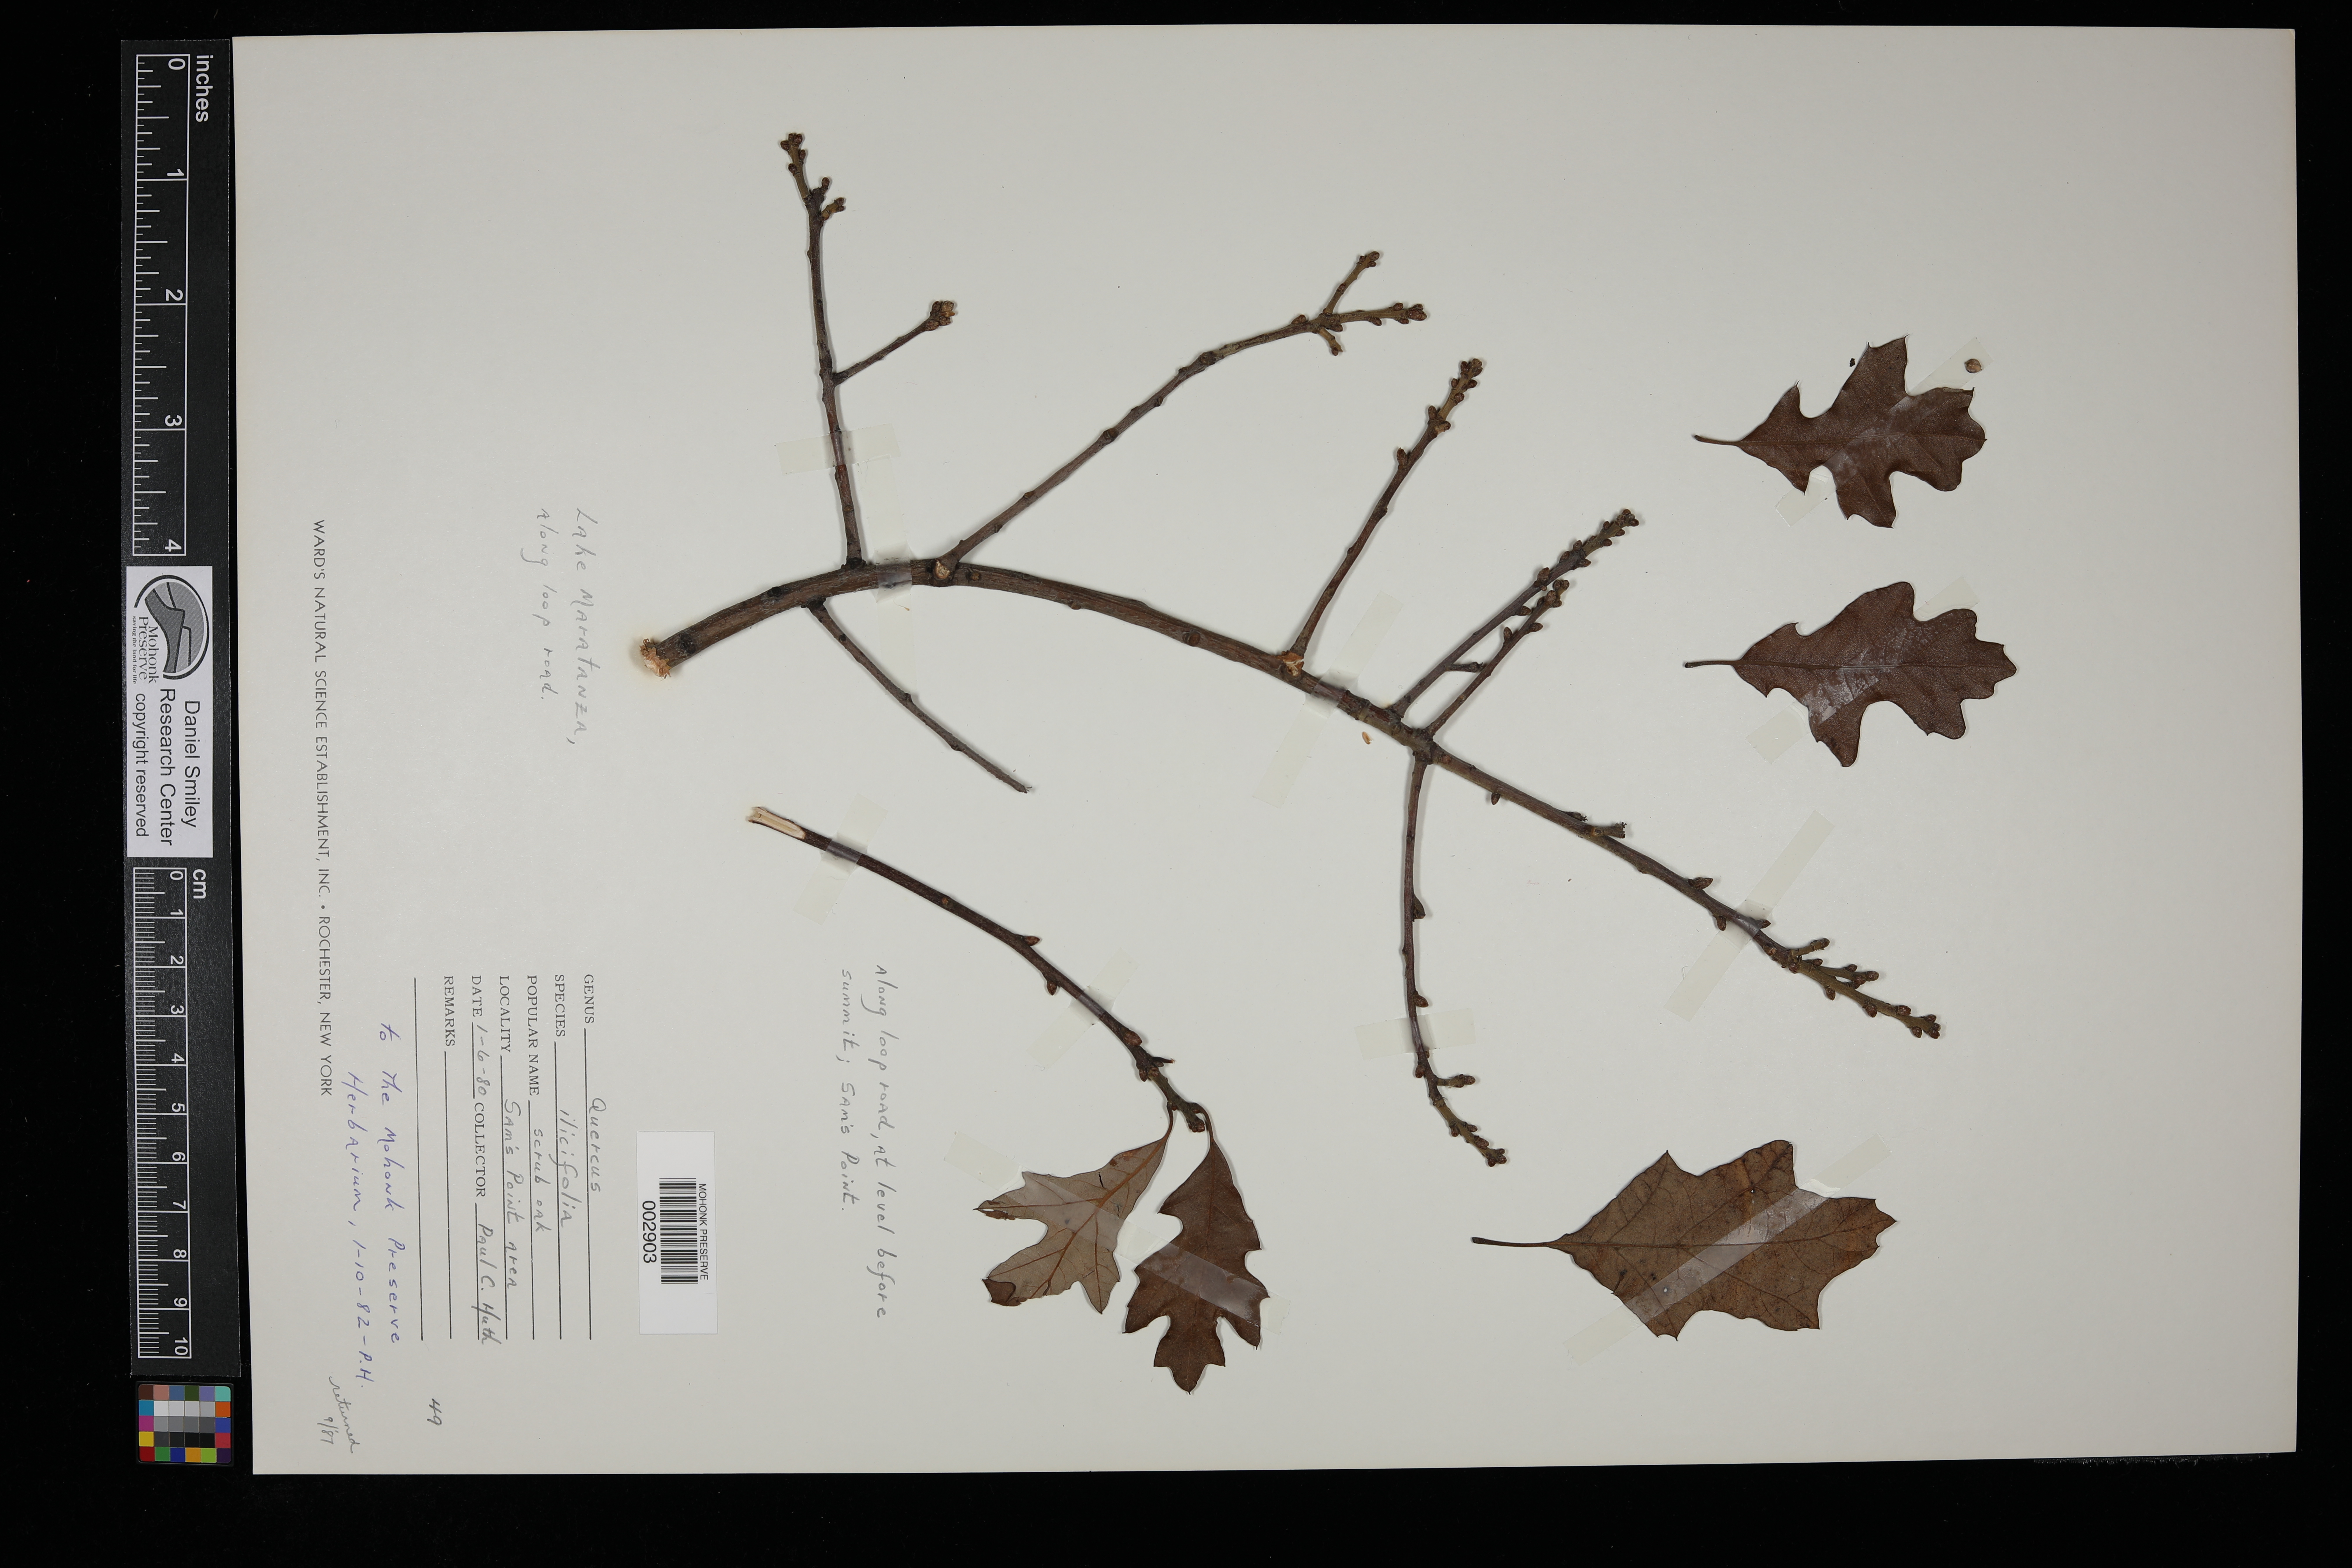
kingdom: Plantae
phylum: Tracheophyta
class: Magnoliopsida
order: Fagales
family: Fagaceae
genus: Quercus
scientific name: Quercus ilicifolia
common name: Bear oak
